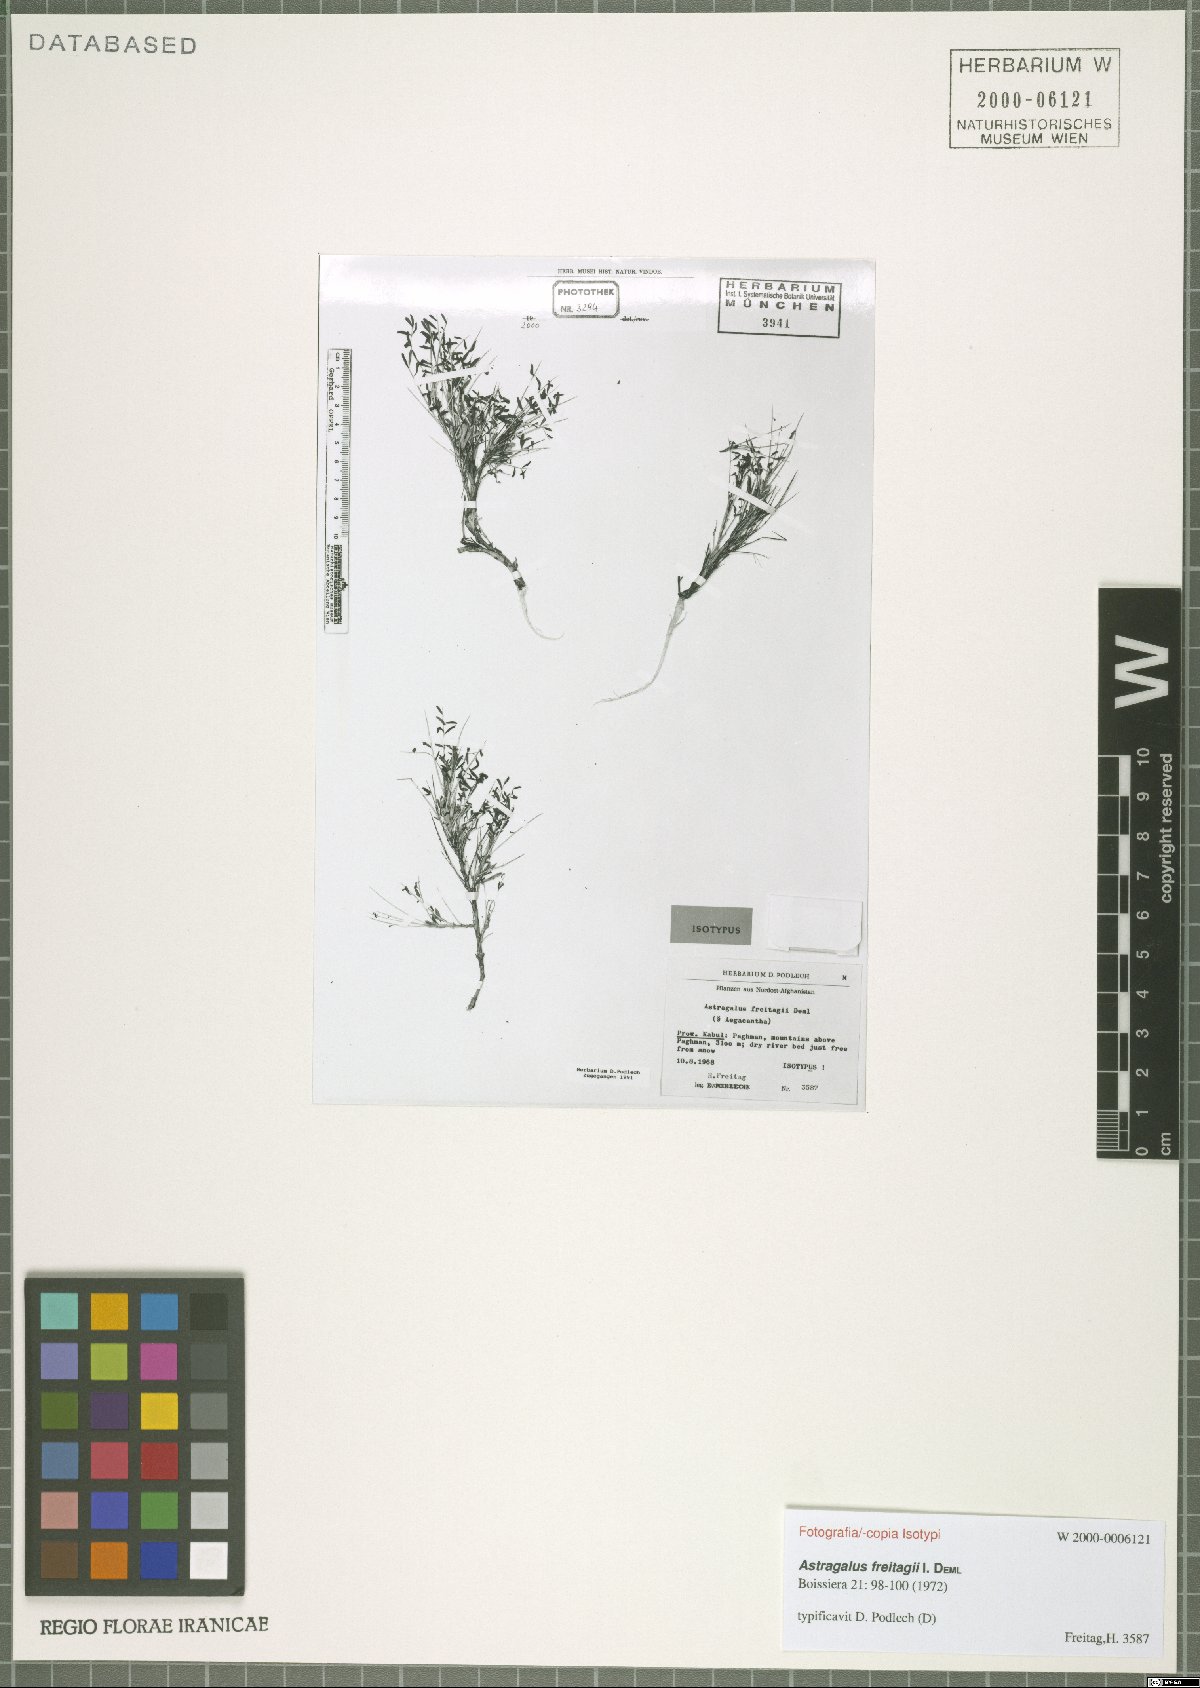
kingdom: Plantae
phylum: Tracheophyta
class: Magnoliopsida
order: Fabales
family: Fabaceae
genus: Astragalus
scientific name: Astragalus freitagii
